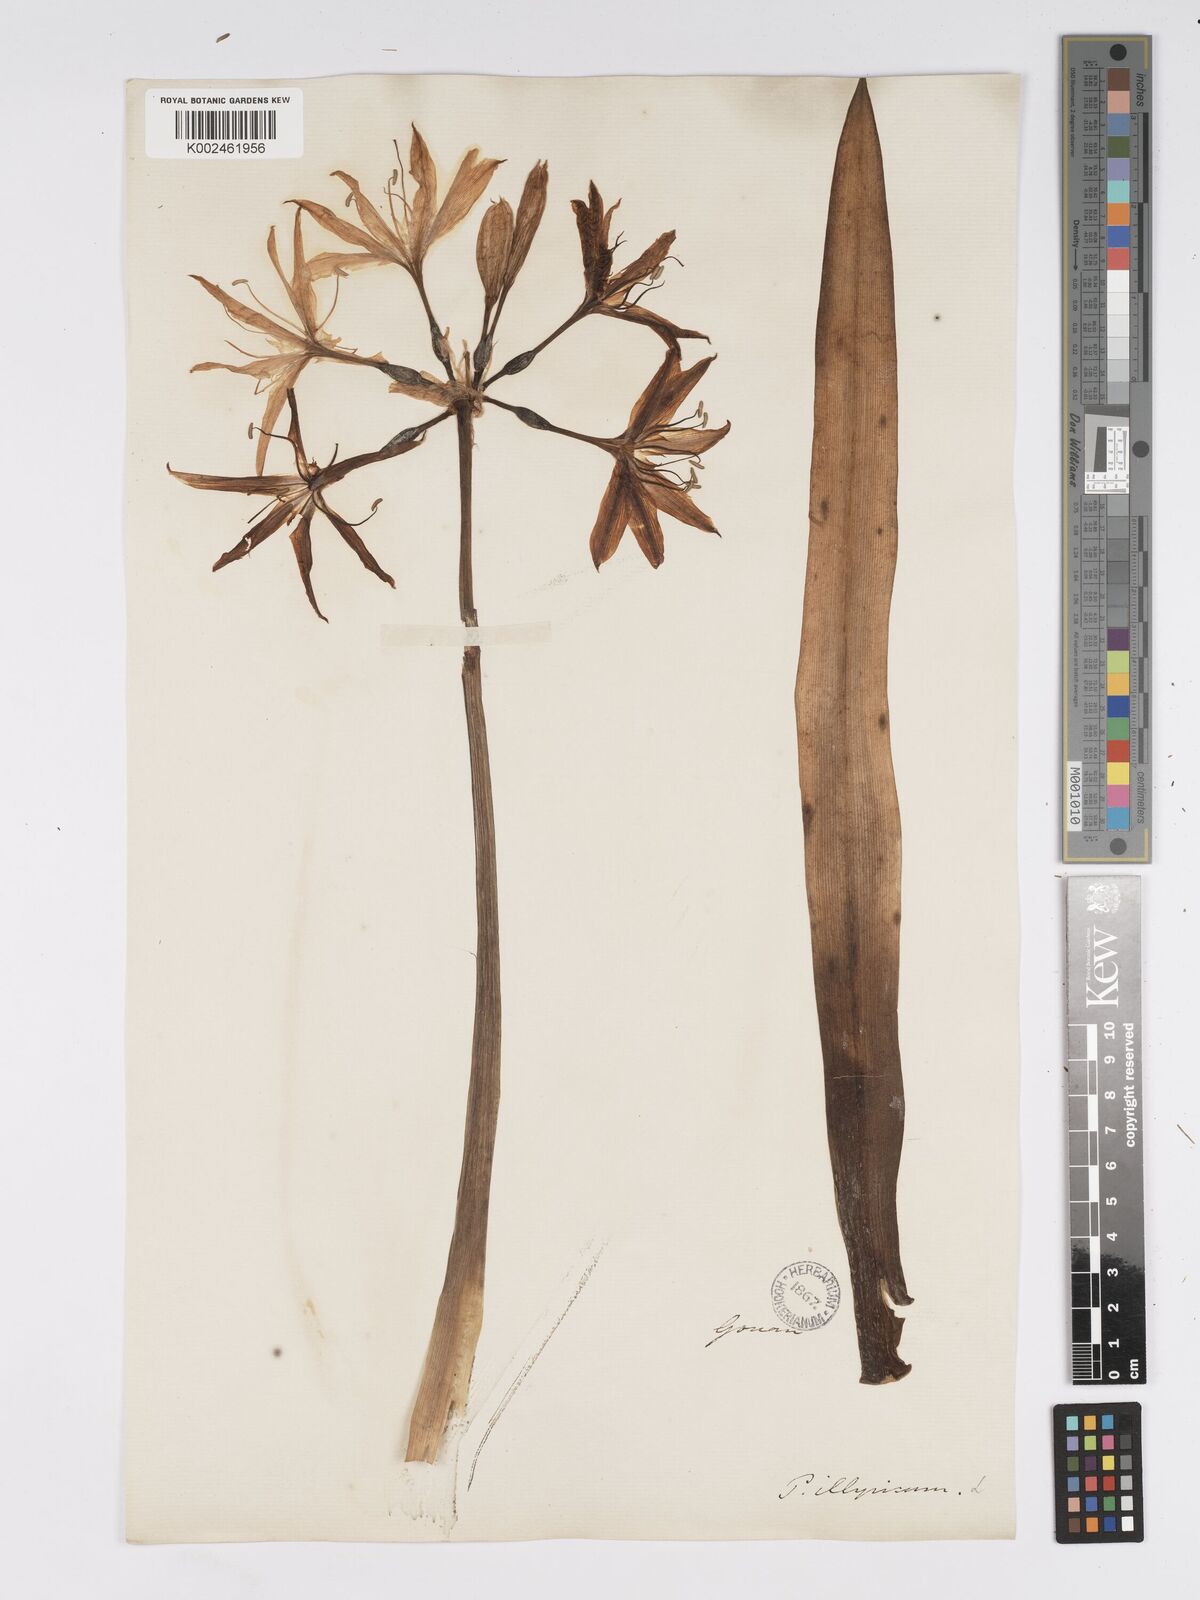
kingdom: Plantae
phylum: Tracheophyta
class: Liliopsida
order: Asparagales
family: Amaryllidaceae
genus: Pancratium
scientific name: Pancratium illyricum
